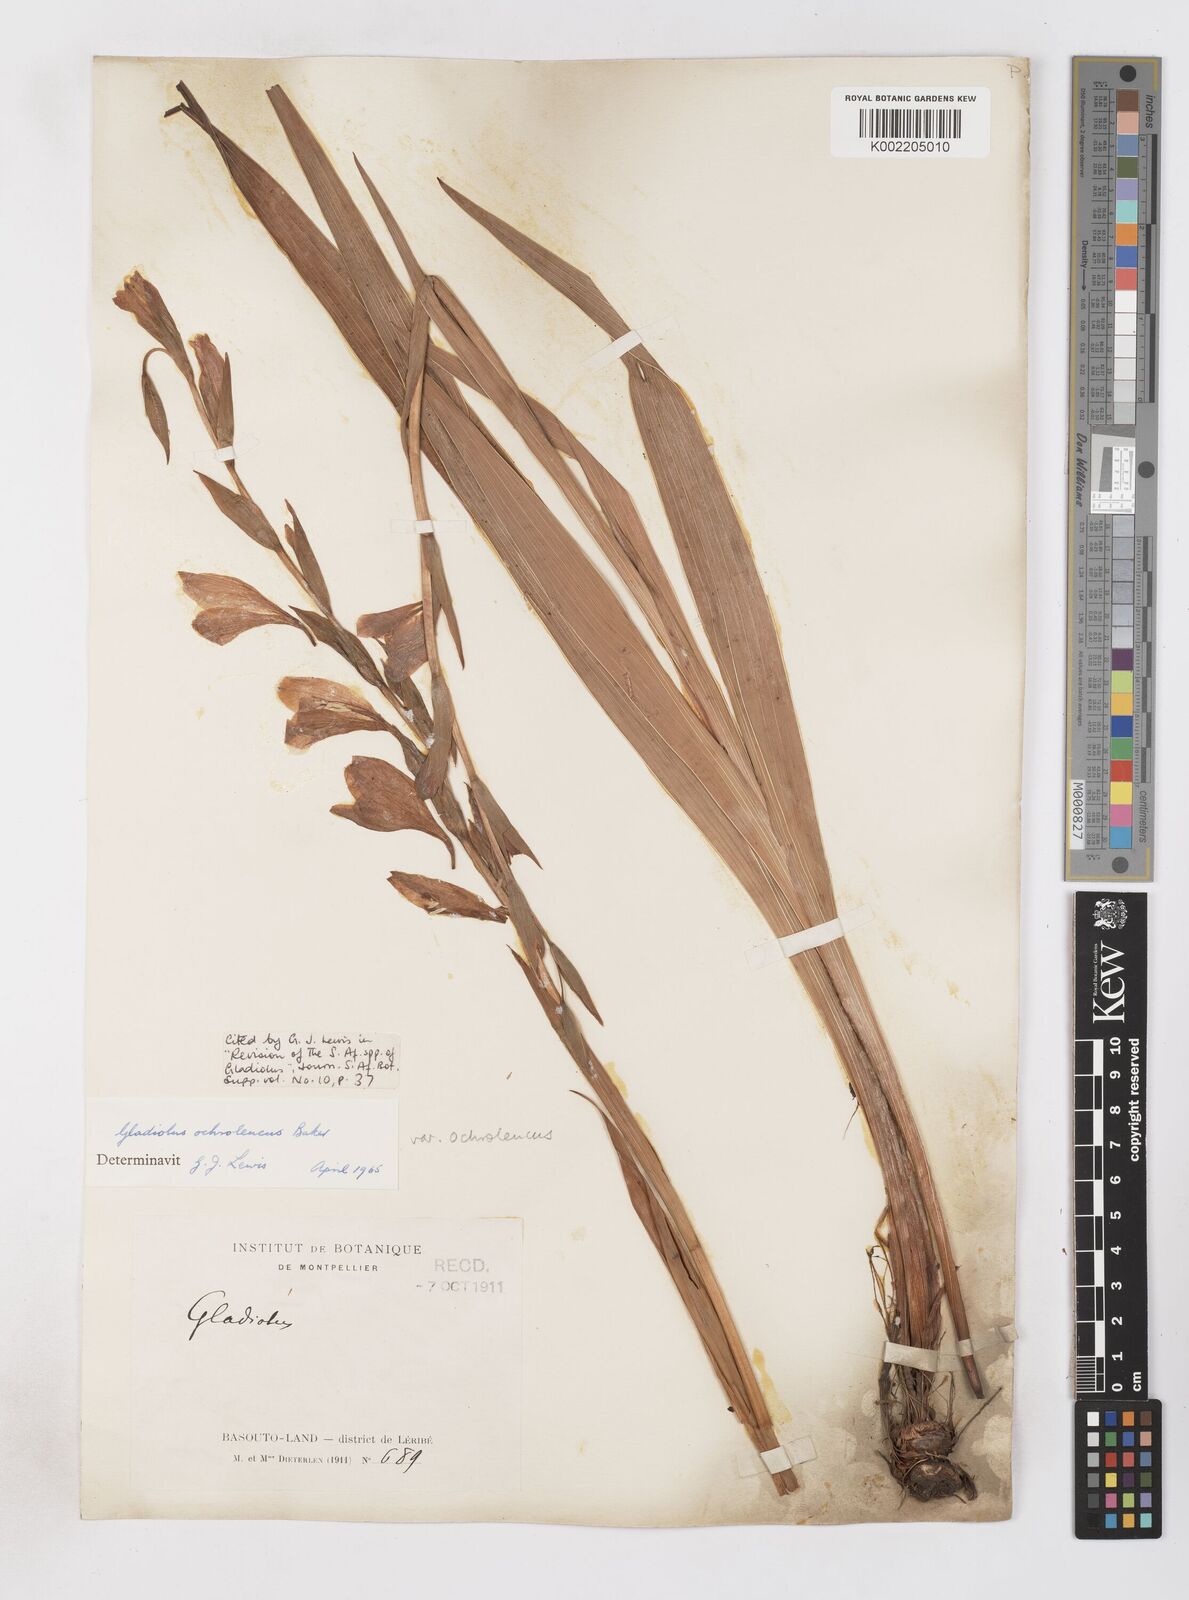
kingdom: Plantae
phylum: Tracheophyta
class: Liliopsida
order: Asparagales
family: Iridaceae
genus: Gladiolus
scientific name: Gladiolus ochroleucus
